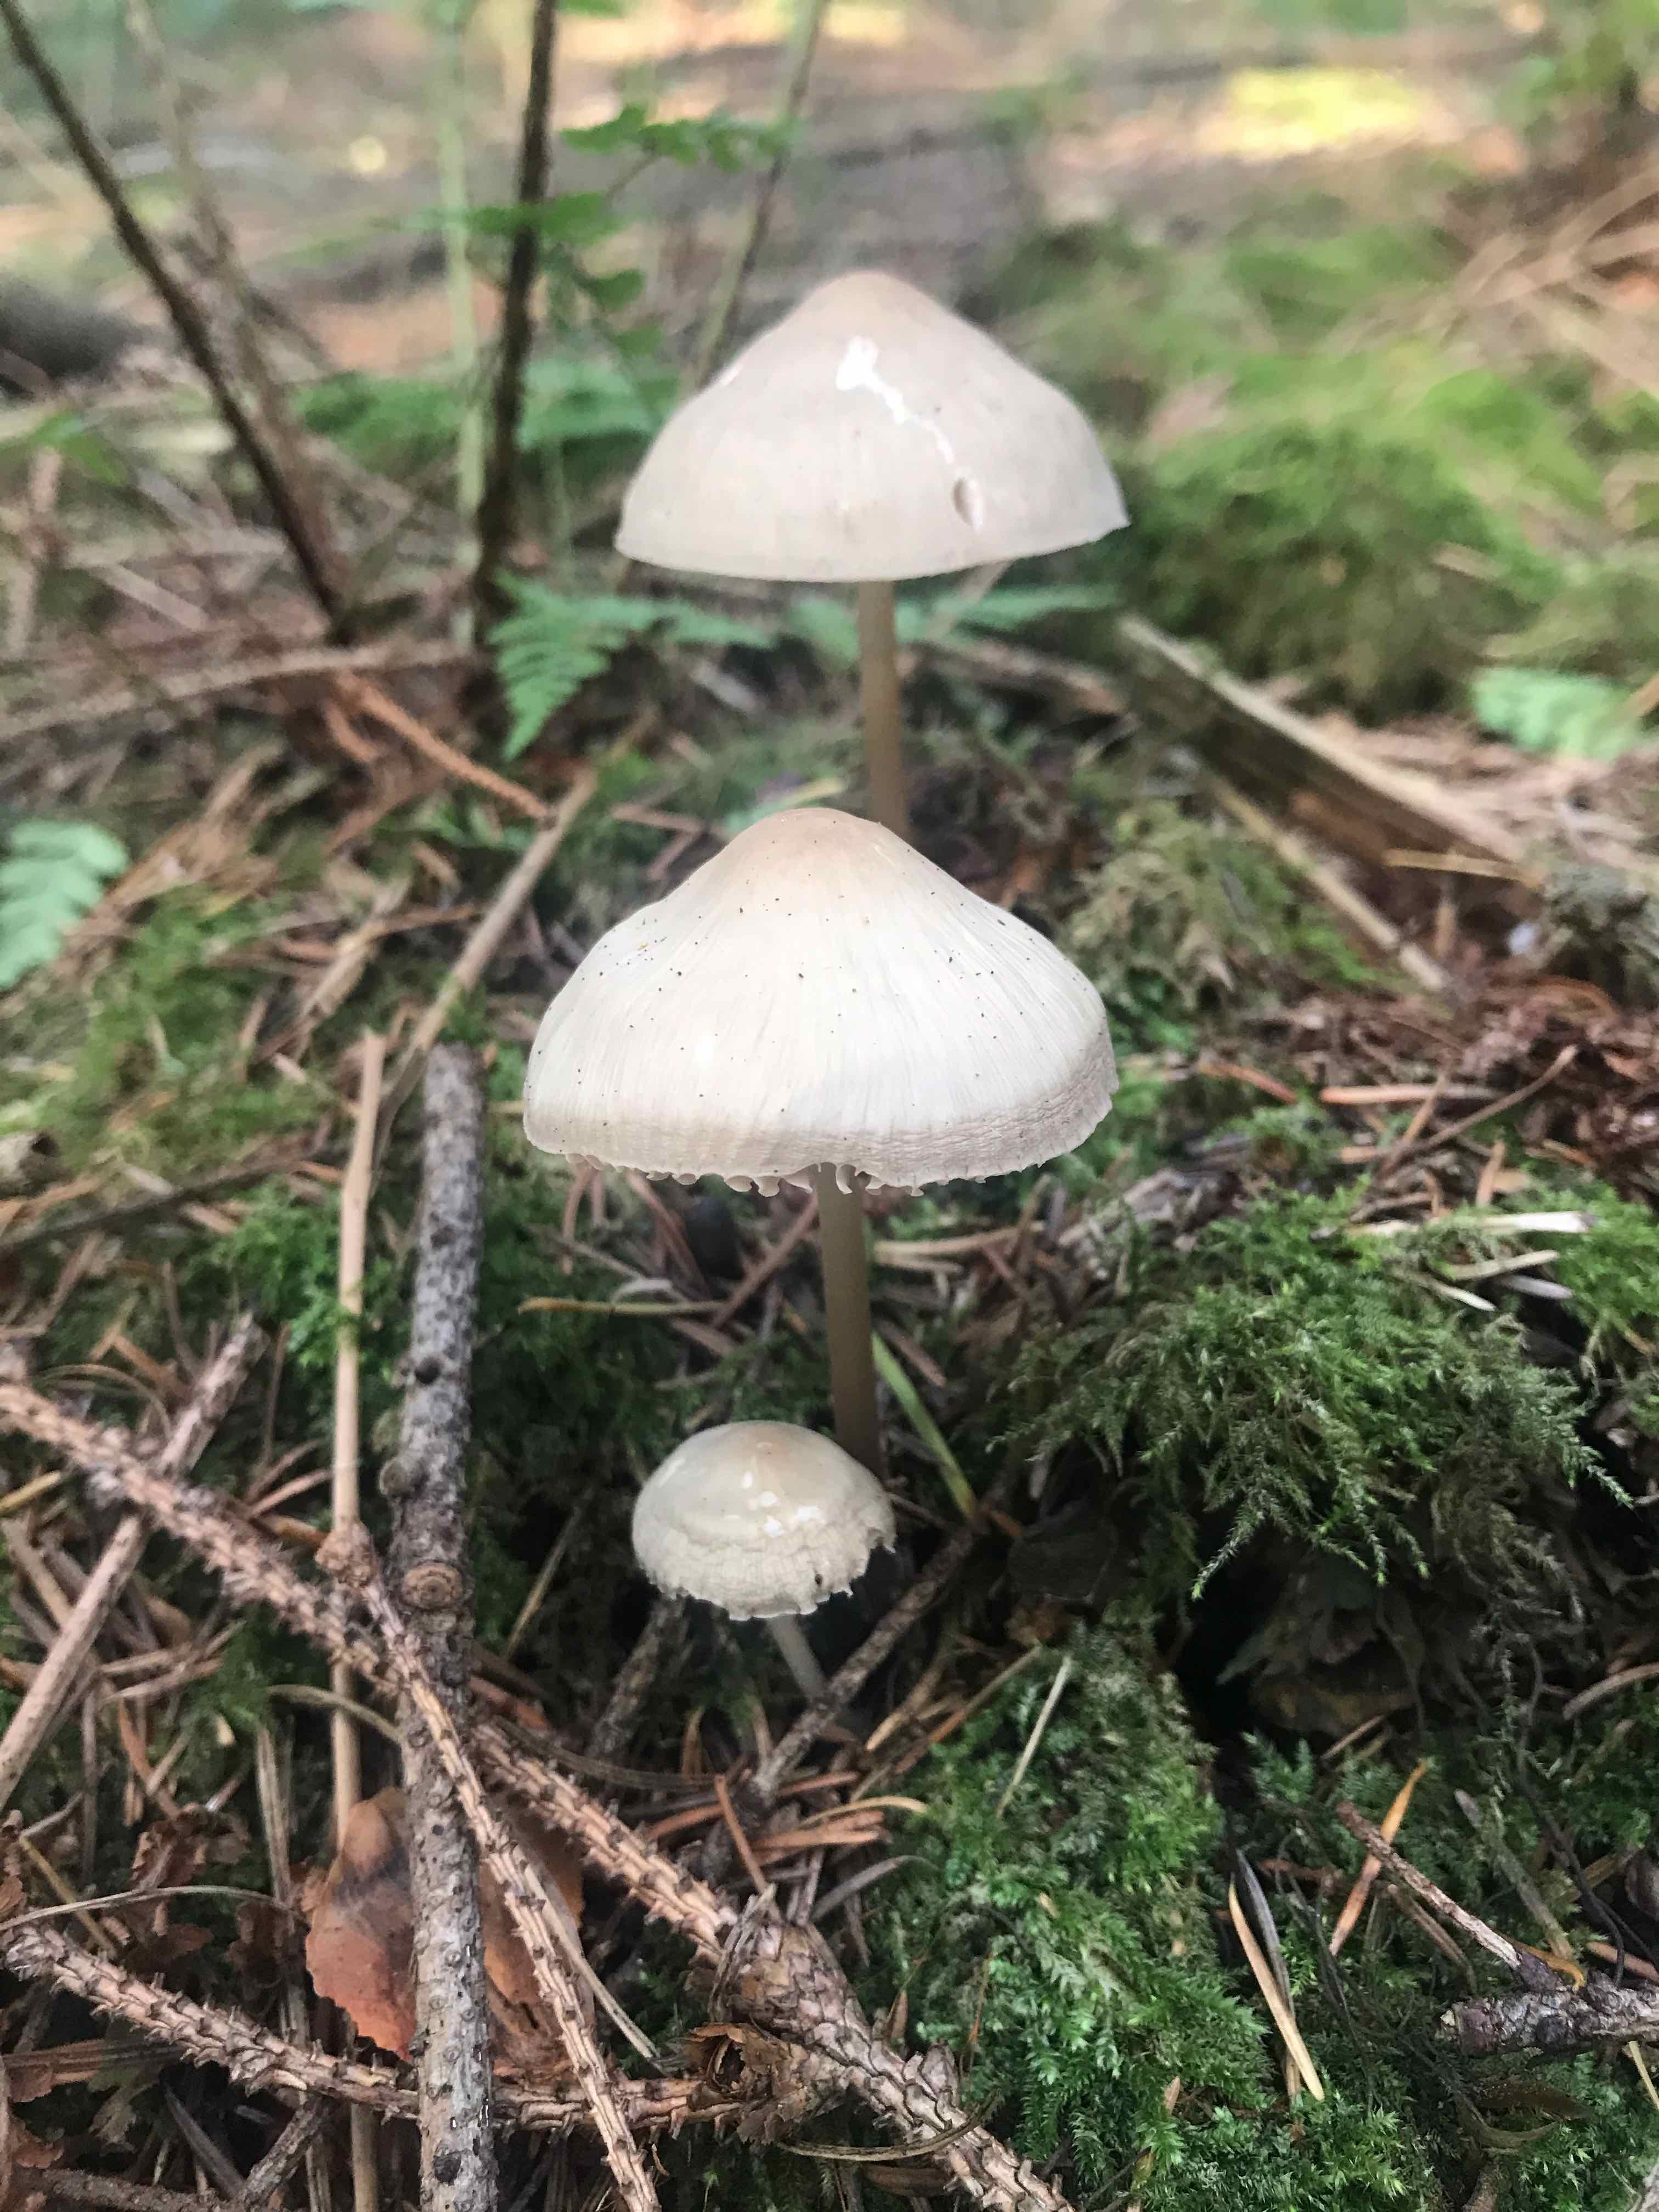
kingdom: Fungi
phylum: Basidiomycota
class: Agaricomycetes
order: Agaricales
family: Mycenaceae
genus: Mycena
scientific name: Mycena galericulata
